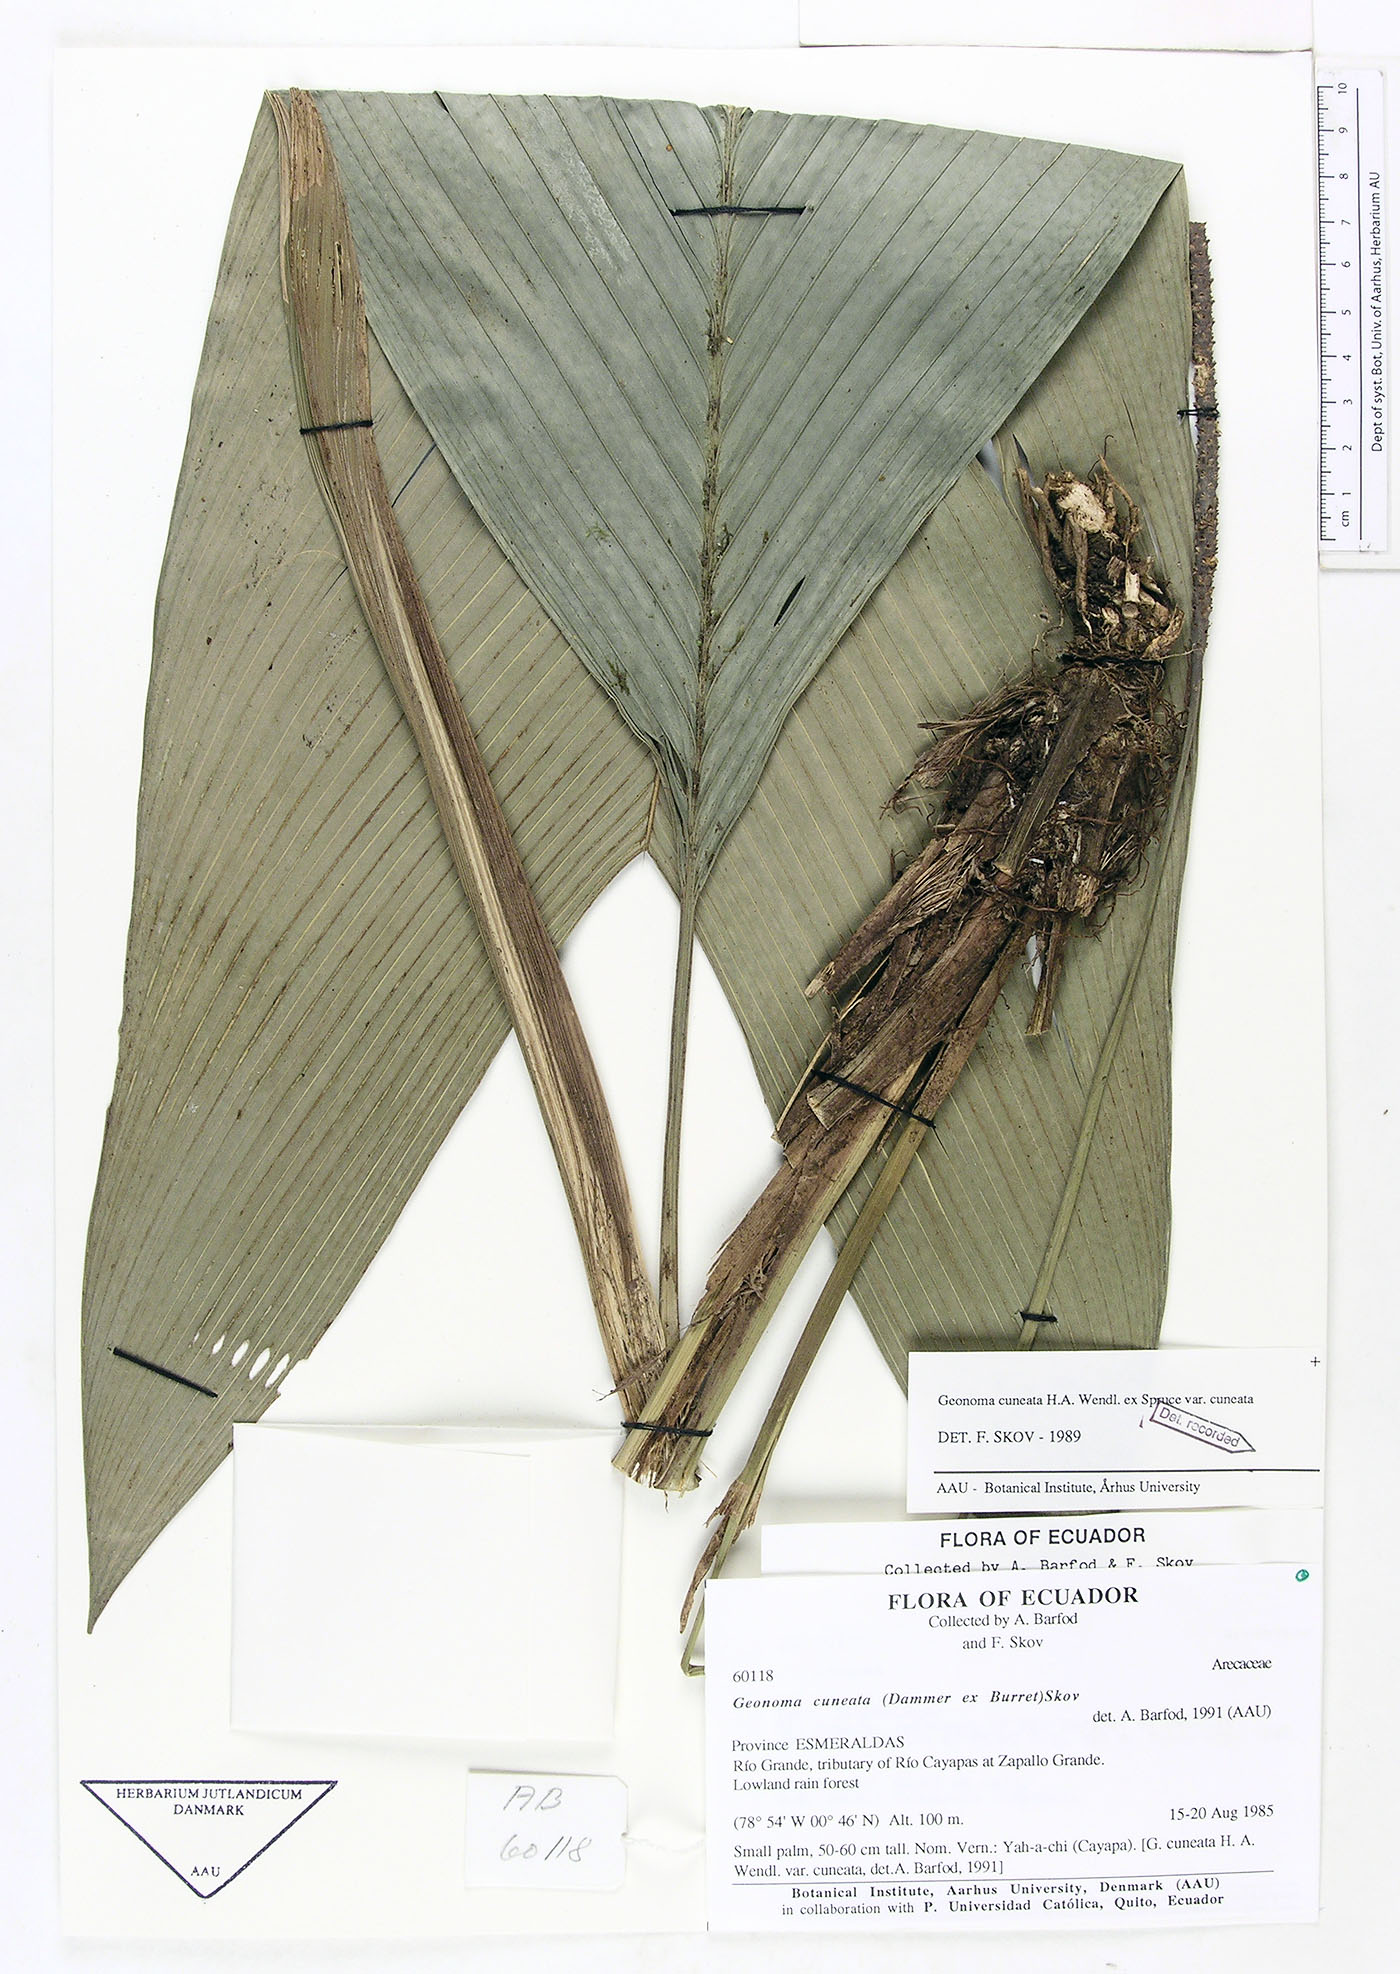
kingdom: Plantae
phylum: Tracheophyta
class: Liliopsida
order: Arecales
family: Arecaceae
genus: Geonoma
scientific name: Geonoma cuneata
